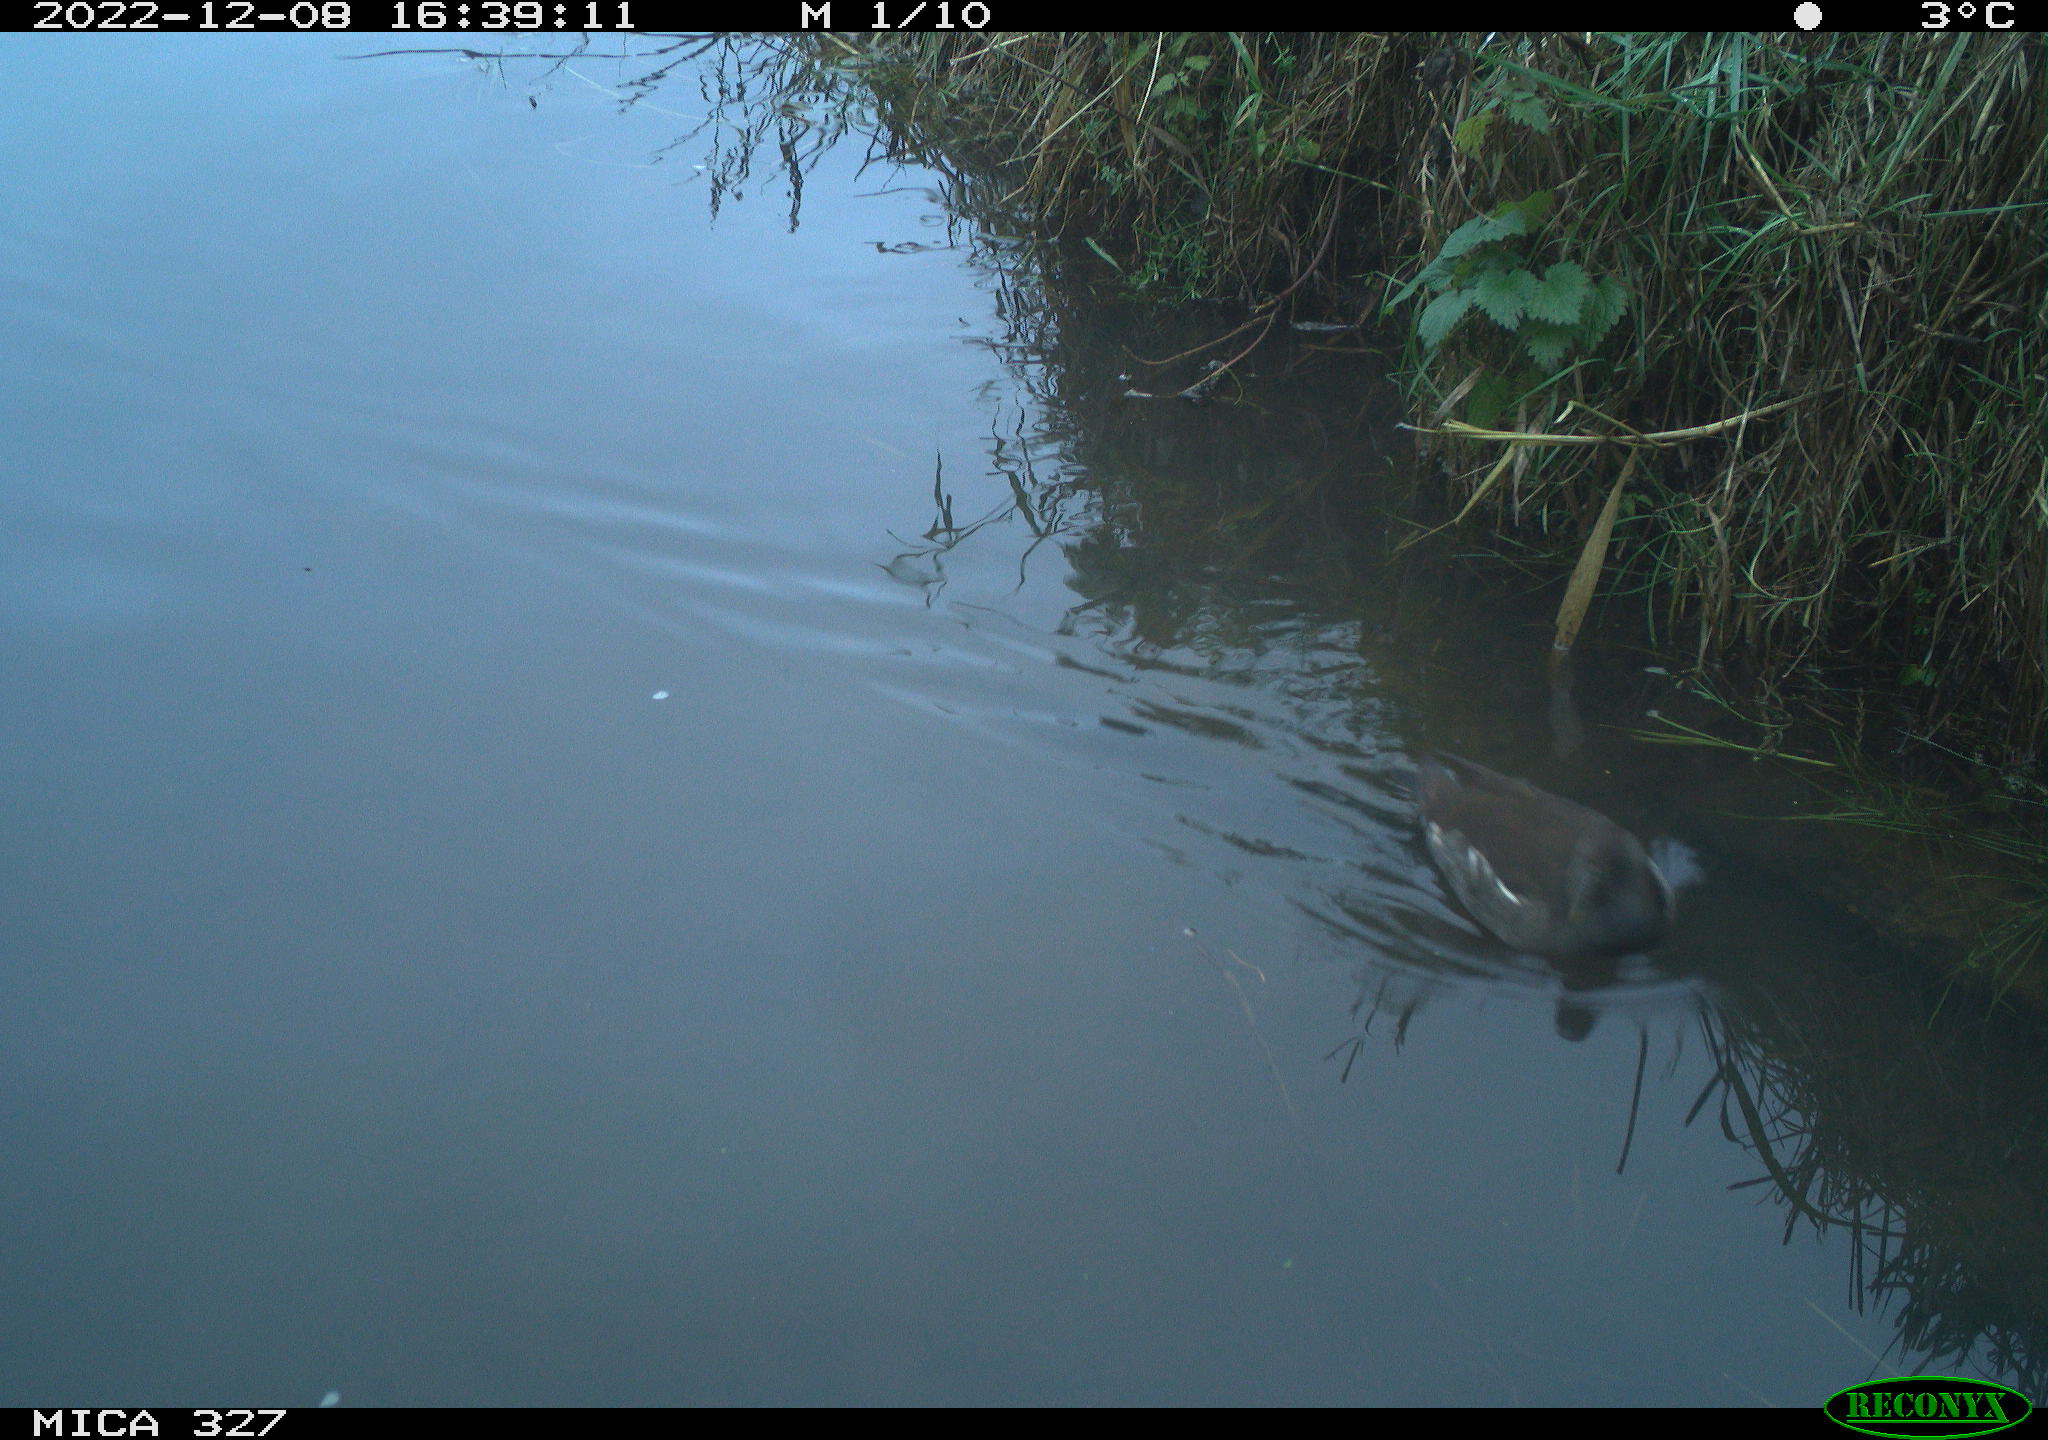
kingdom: Animalia
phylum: Chordata
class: Aves
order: Gruiformes
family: Rallidae
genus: Gallinula
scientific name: Gallinula chloropus
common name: Common moorhen
